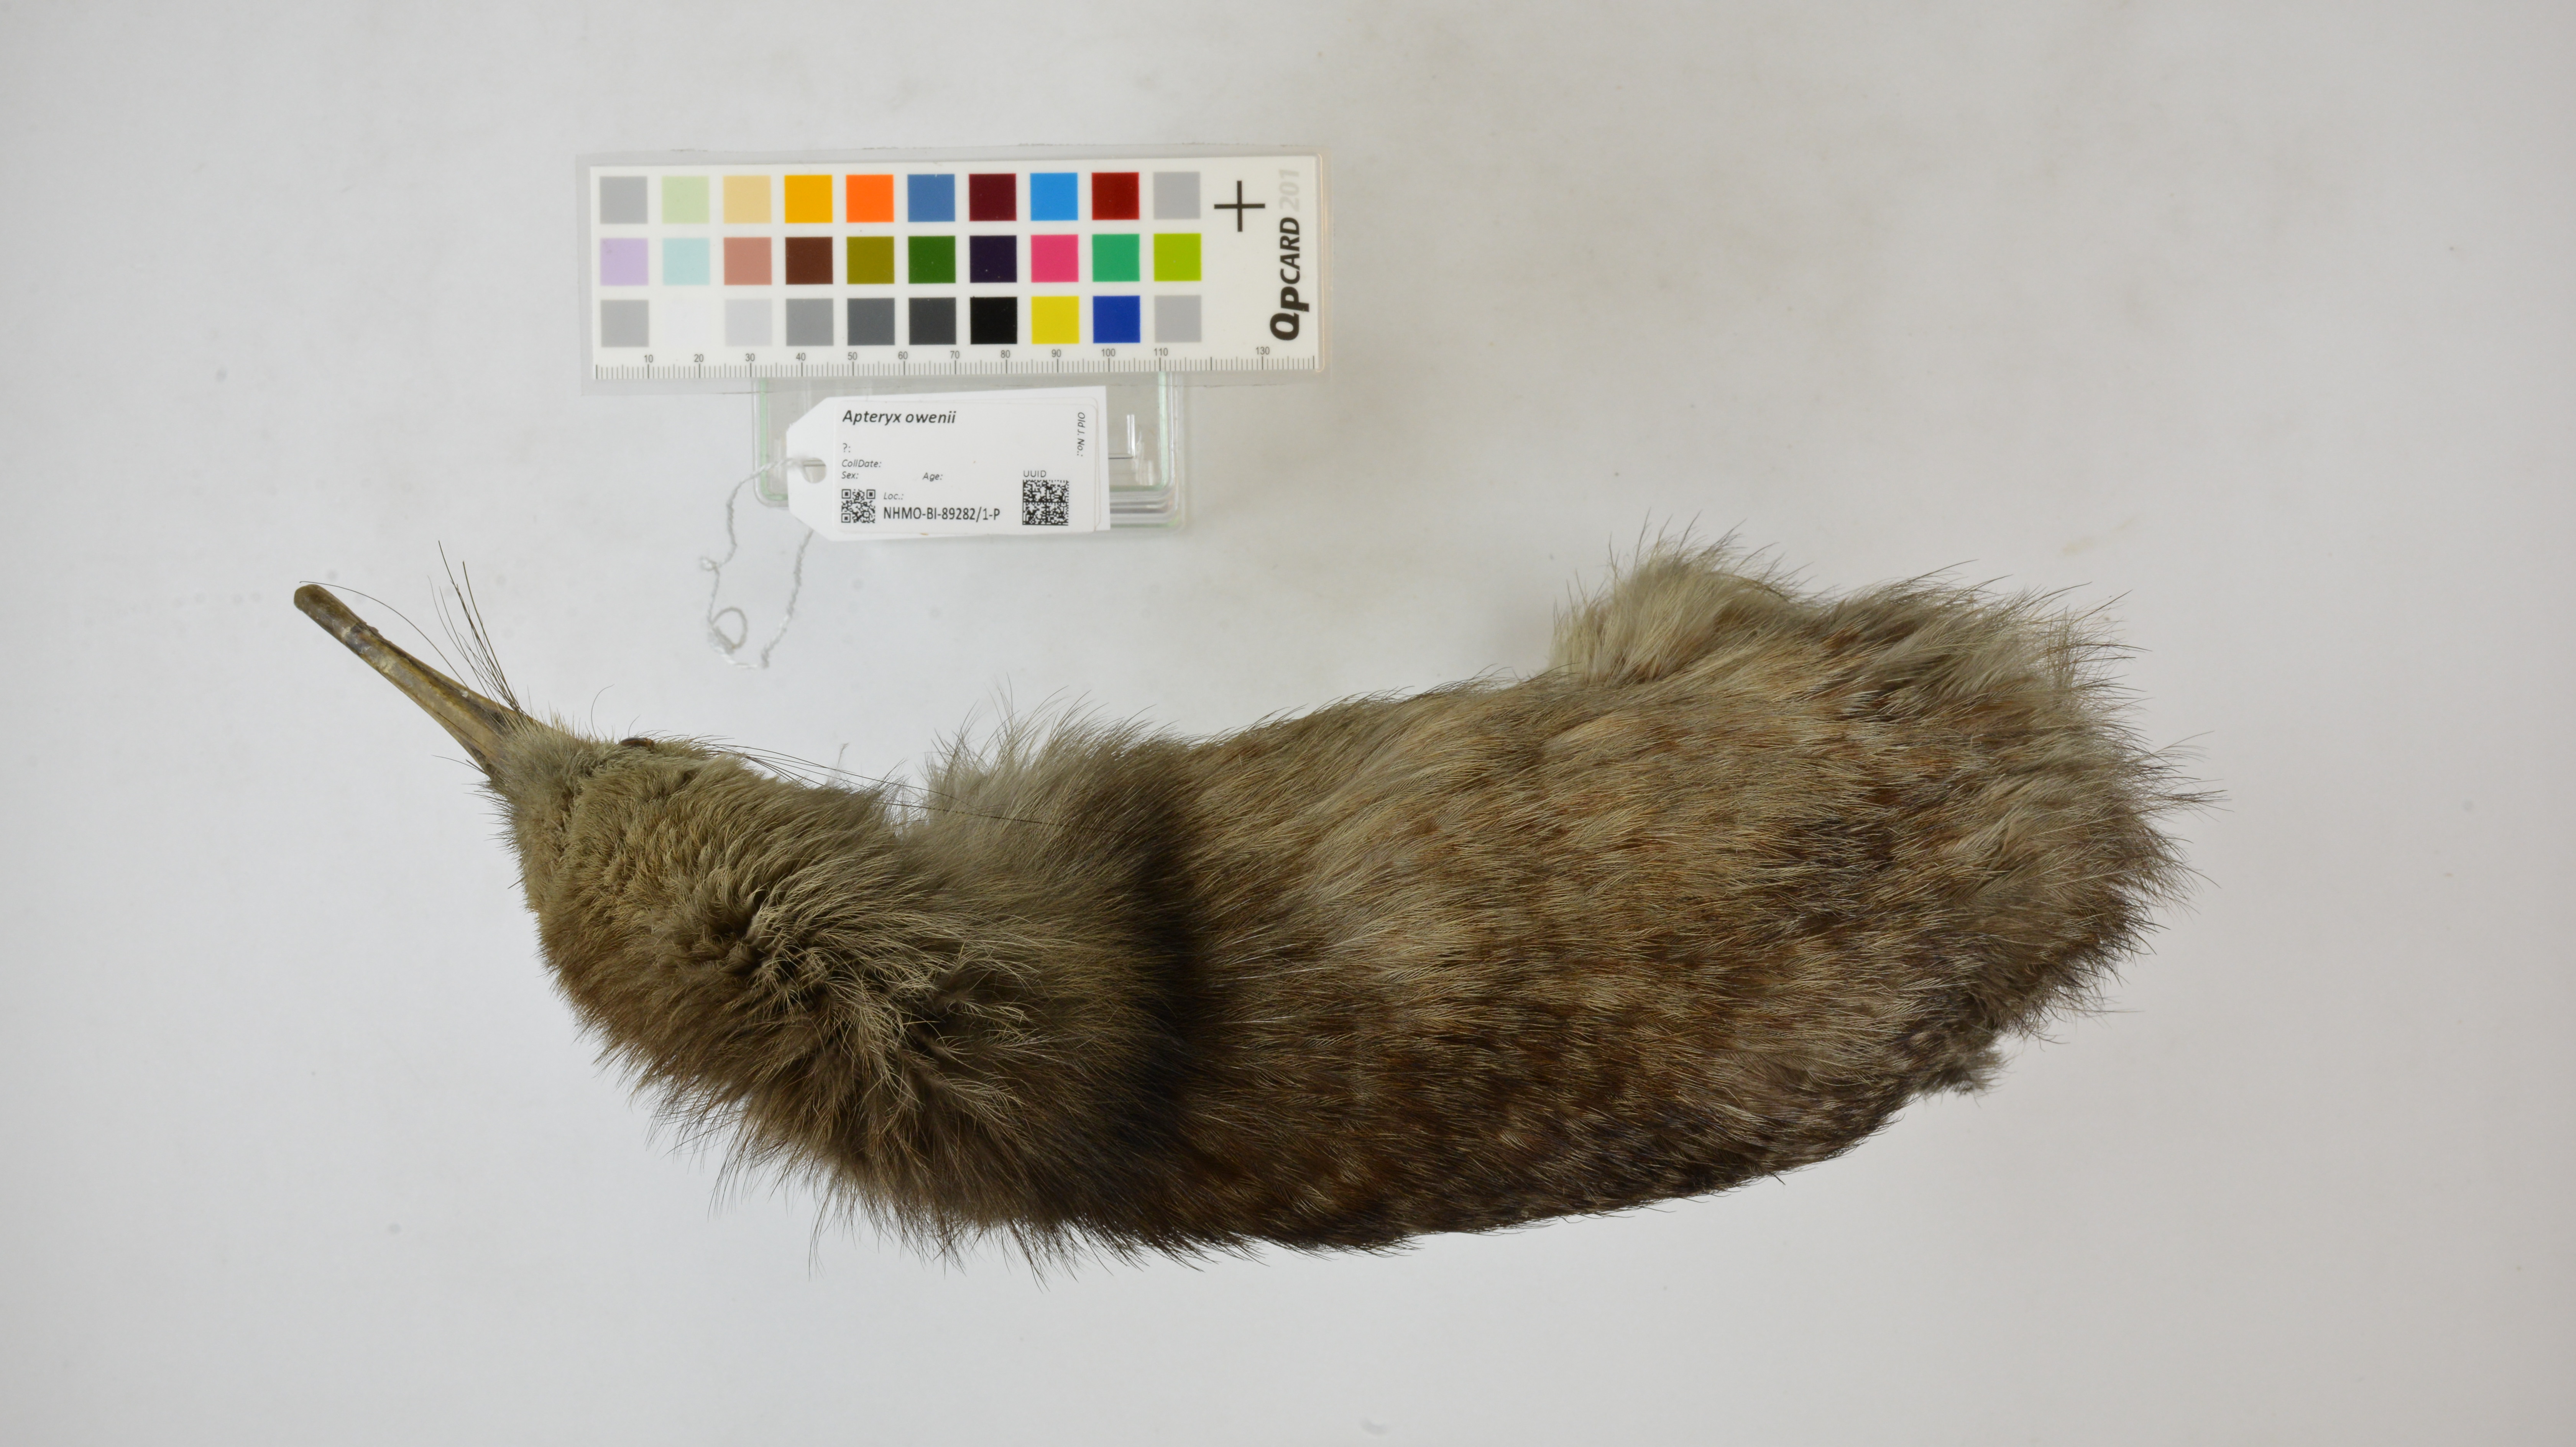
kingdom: Animalia
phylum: Chordata
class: Aves
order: Apterygiformes
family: Apterygidae
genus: Apteryx
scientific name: Apteryx owenii
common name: Little spotted kiwi
